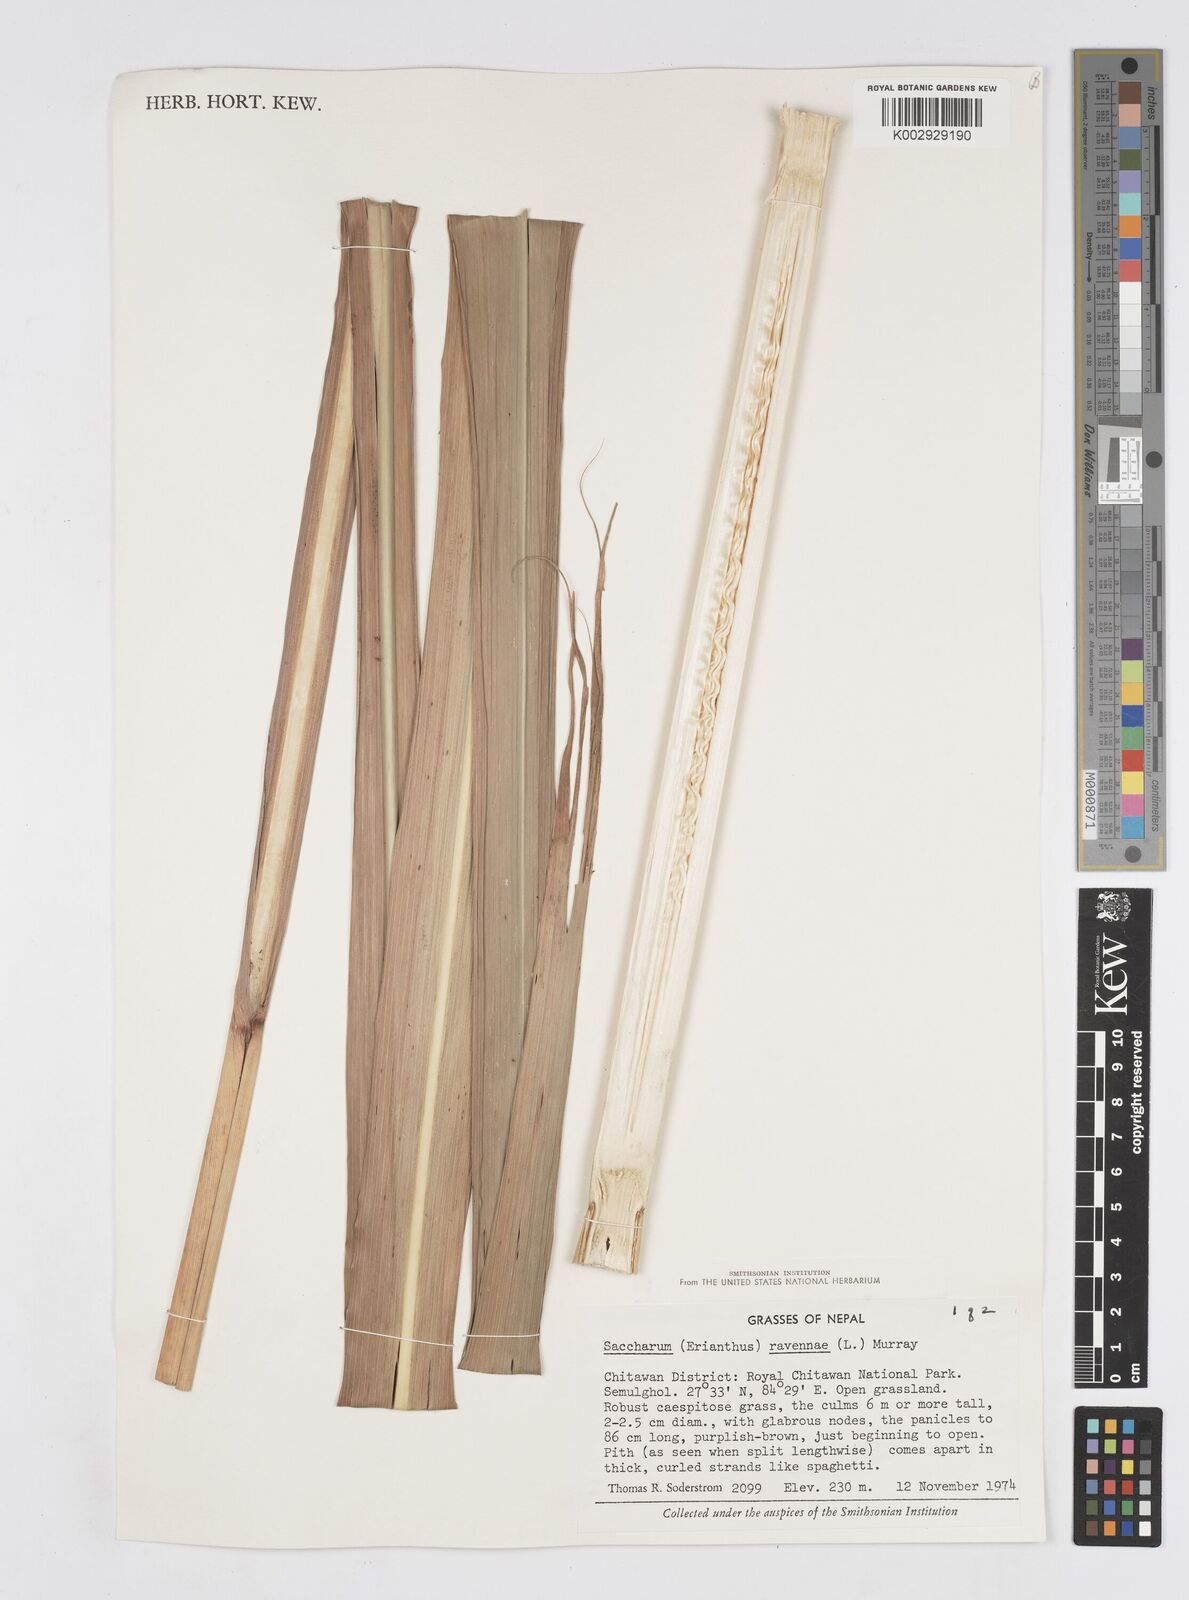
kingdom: Plantae
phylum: Tracheophyta
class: Liliopsida
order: Poales
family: Poaceae
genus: Tripidium
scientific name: Tripidium ravennae
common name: Ravenna grass
